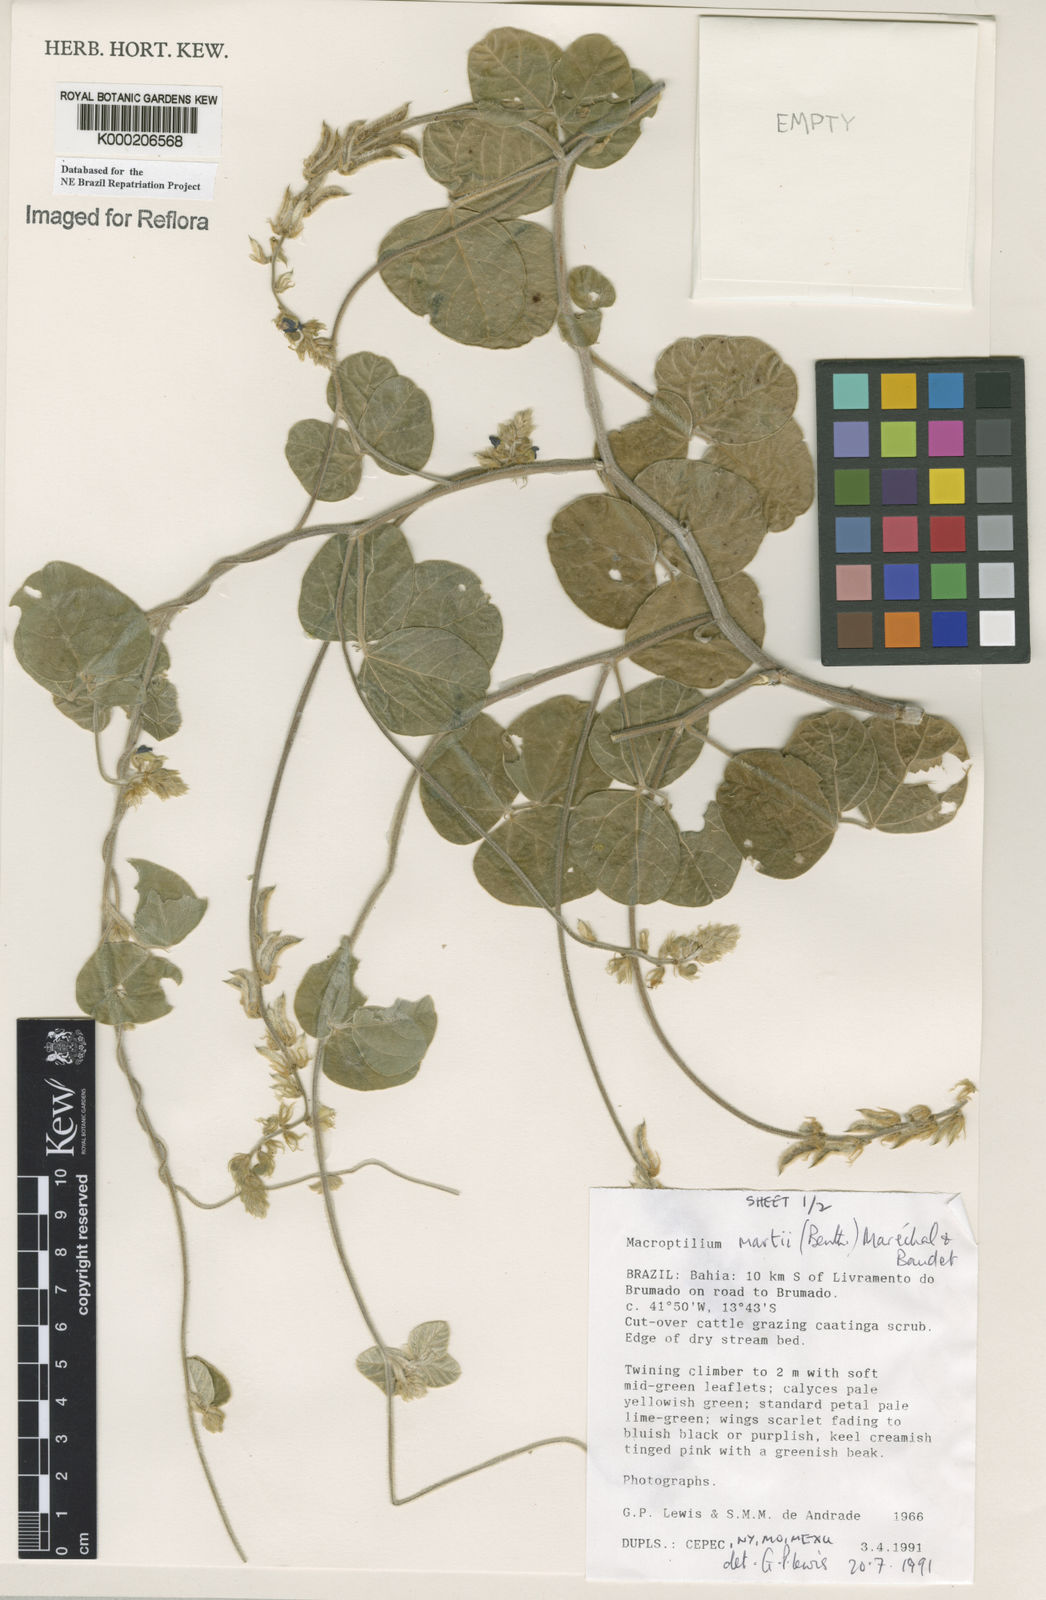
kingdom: Plantae
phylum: Tracheophyta
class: Magnoliopsida
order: Fabales
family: Fabaceae
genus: Macroptilium
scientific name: Macroptilium
